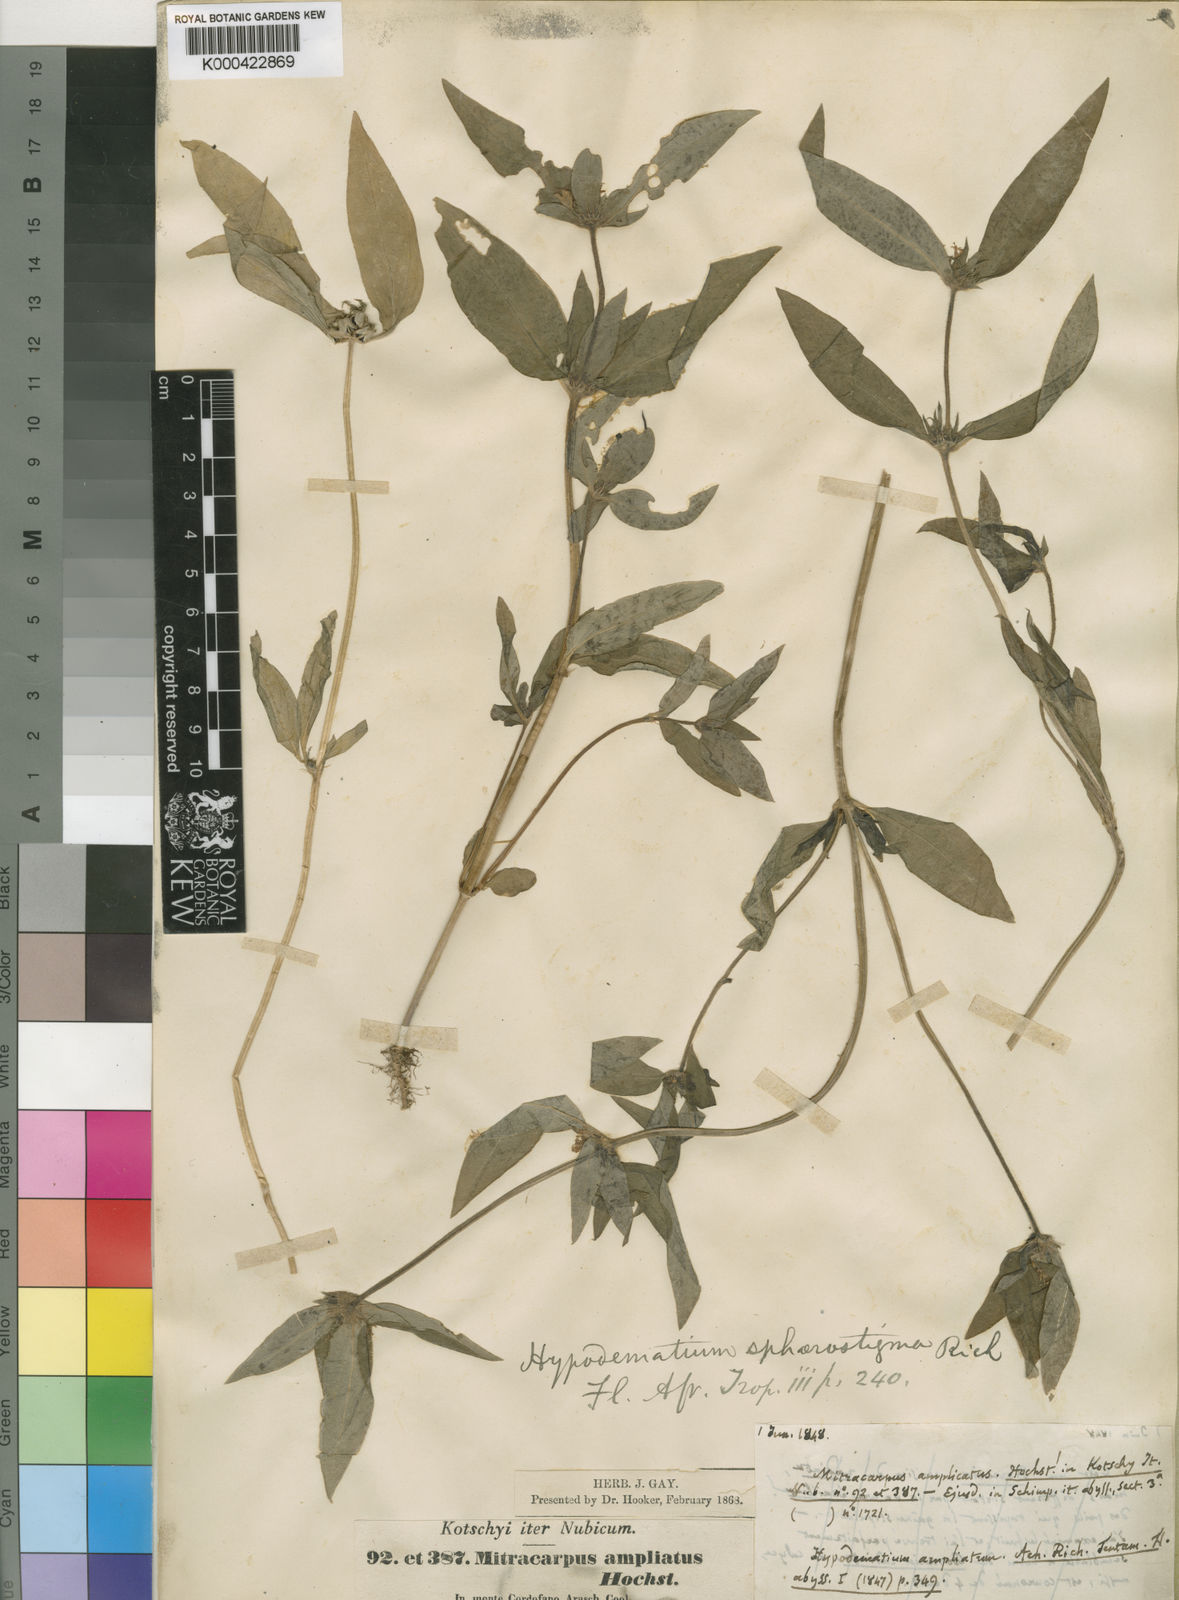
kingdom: Plantae
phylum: Tracheophyta
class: Magnoliopsida
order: Gentianales
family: Rubiaceae
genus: Spermacoce
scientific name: Spermacoce sphaerostigma
